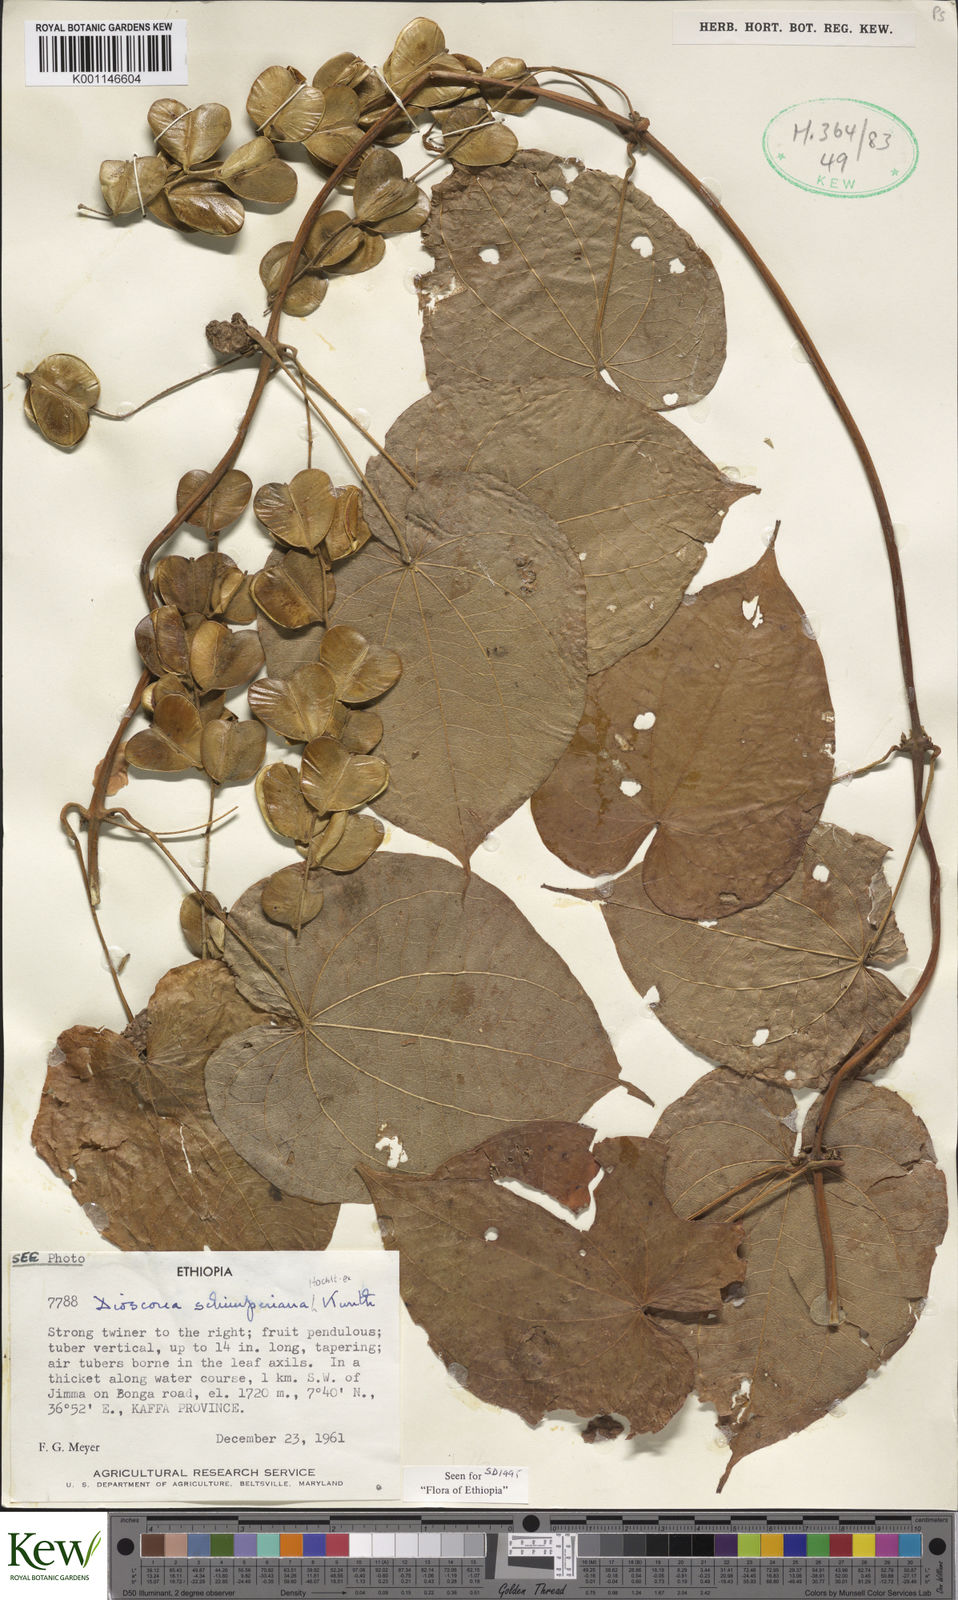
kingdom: Plantae
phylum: Tracheophyta
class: Liliopsida
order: Dioscoreales
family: Dioscoreaceae
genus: Dioscorea
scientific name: Dioscorea schimperiana
